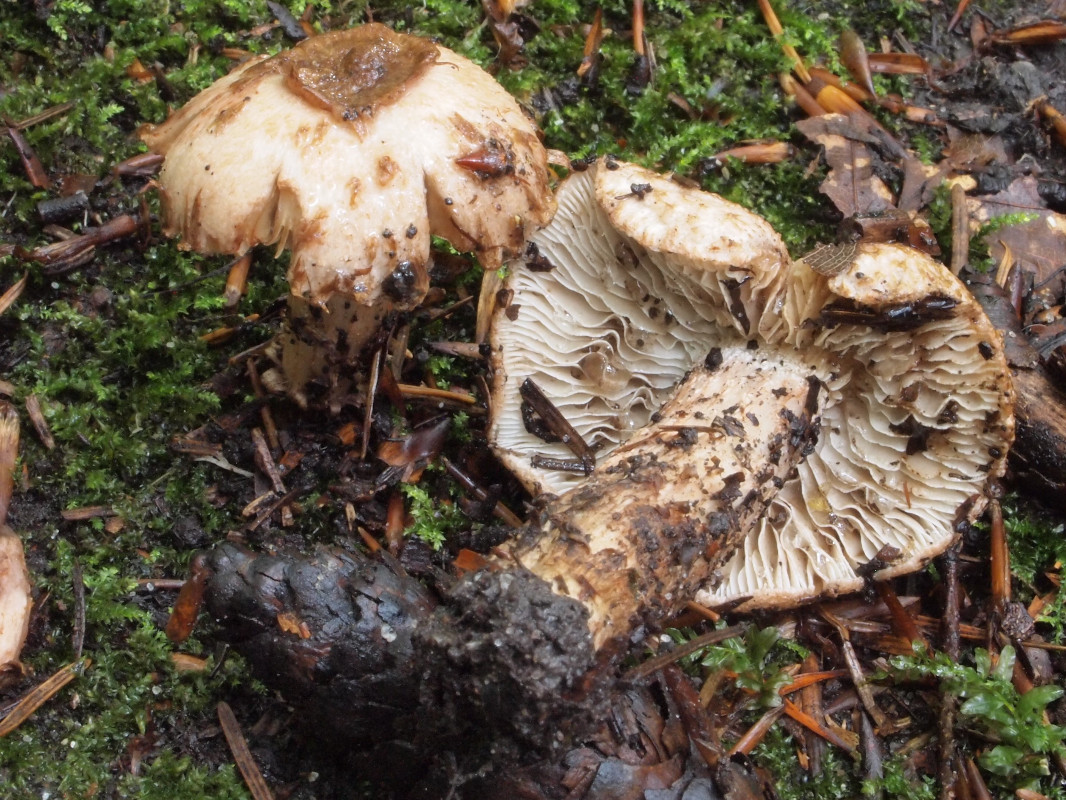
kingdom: Fungi
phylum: Basidiomycota
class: Agaricomycetes
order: Agaricales
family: Inocybaceae
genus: Inosperma
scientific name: Inosperma bongardii
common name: Bongards trævlhat
